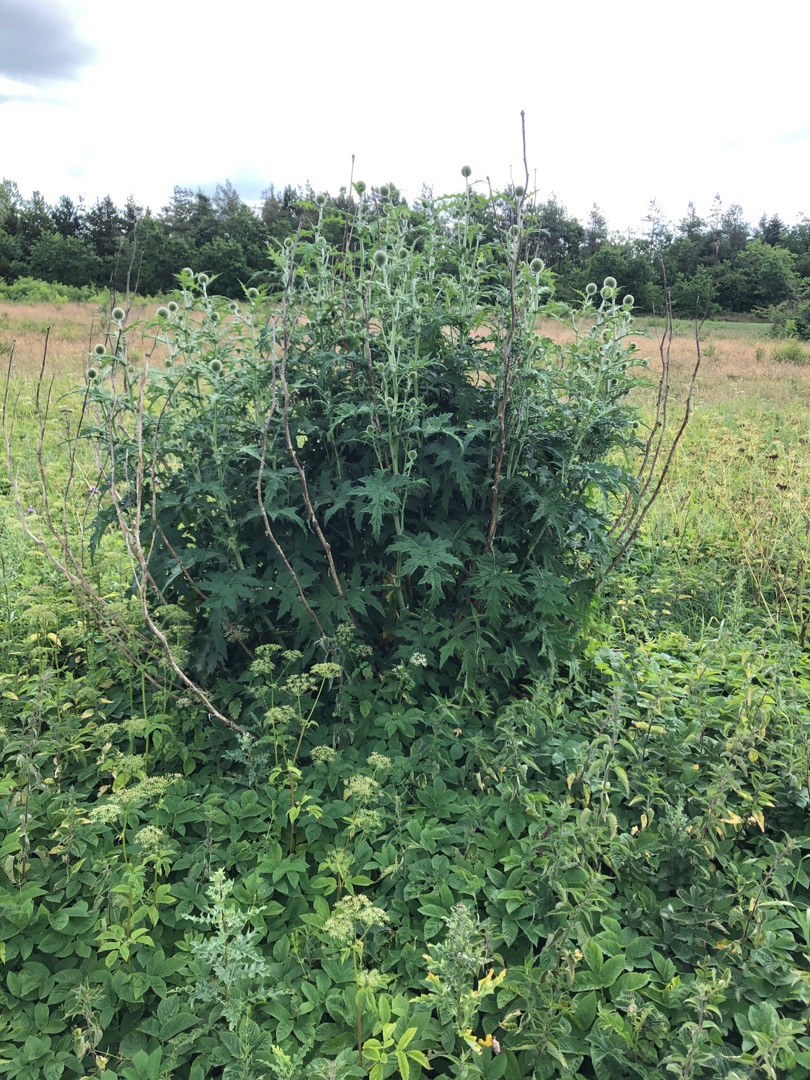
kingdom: Plantae
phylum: Tracheophyta
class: Magnoliopsida
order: Asterales
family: Asteraceae
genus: Echinops
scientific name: Echinops exaltatus
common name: Høj tidselkugle
